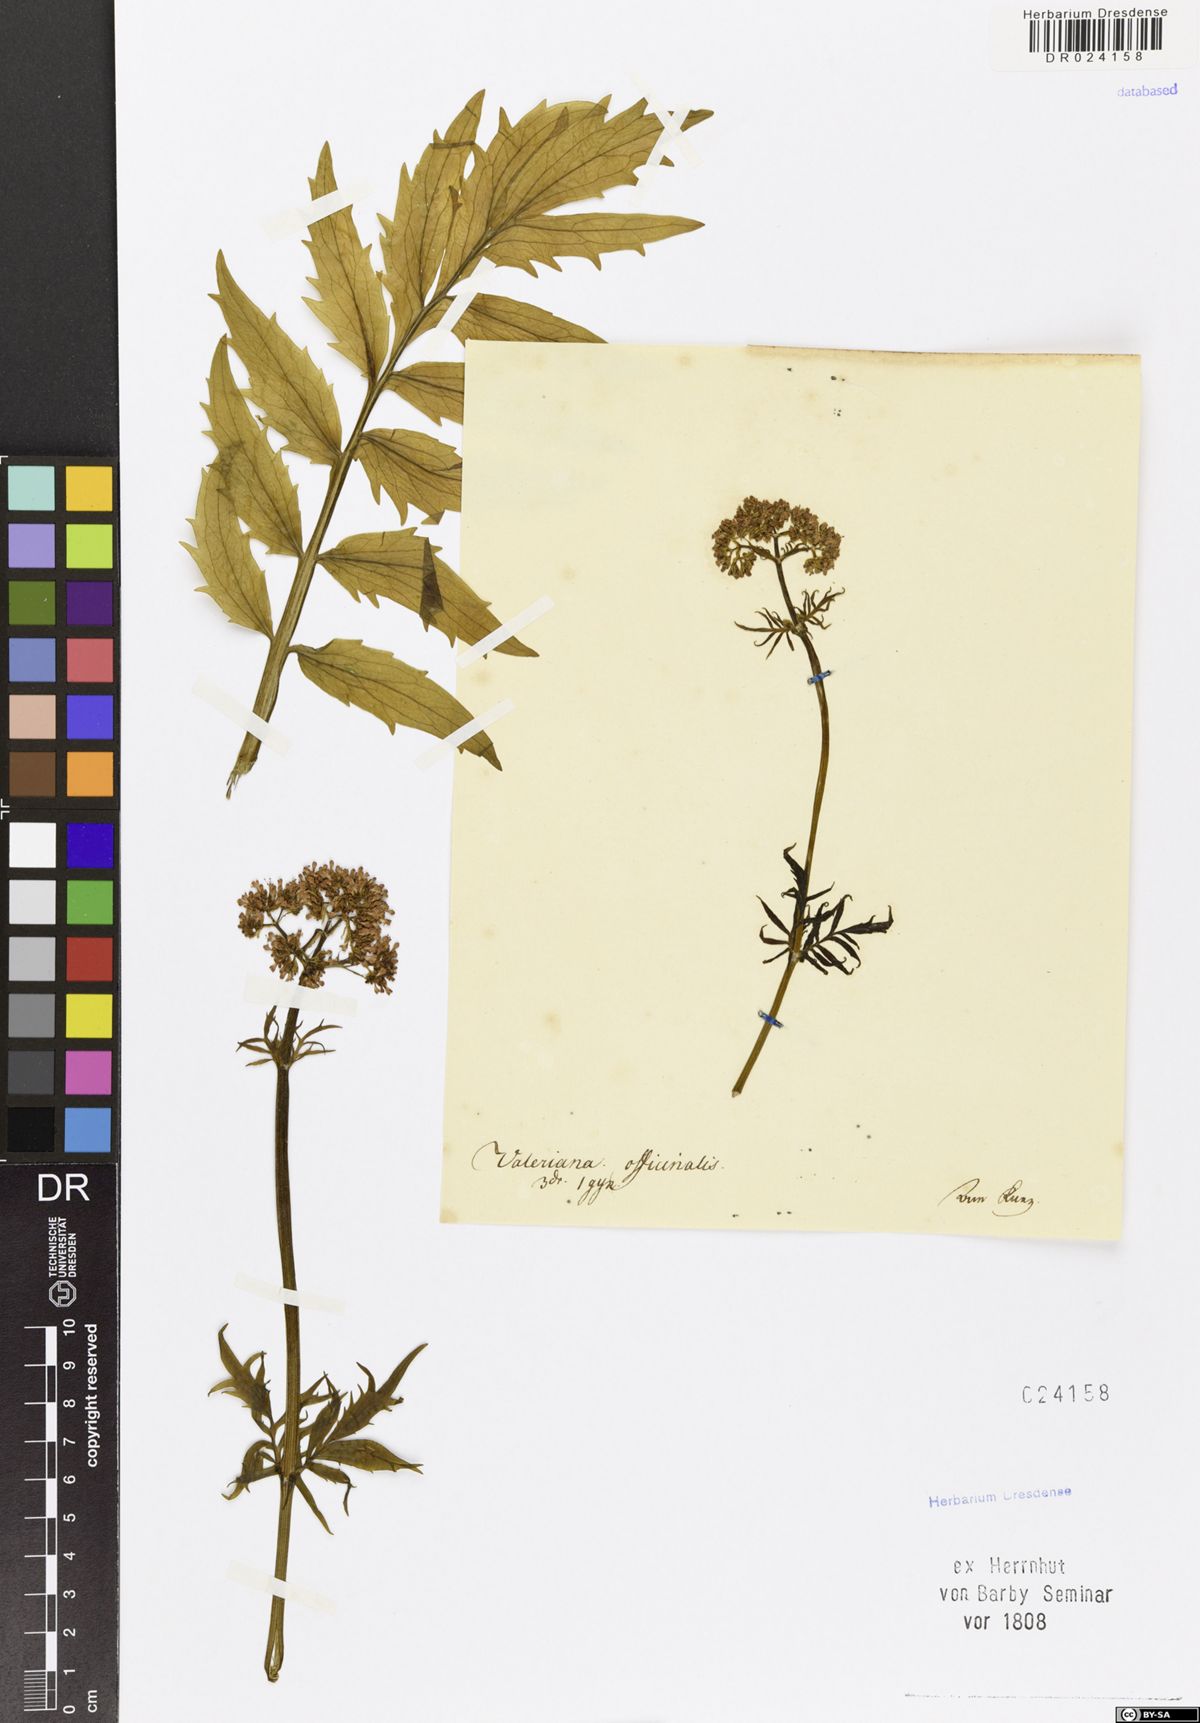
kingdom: Plantae
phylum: Tracheophyta
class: Magnoliopsida
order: Dipsacales
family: Caprifoliaceae
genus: Valeriana
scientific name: Valeriana officinalis
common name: Common valerian
